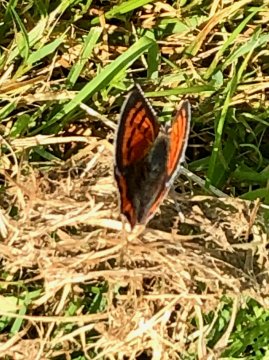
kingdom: Animalia
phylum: Arthropoda
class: Insecta
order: Lepidoptera
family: Lycaenidae
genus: Lycaena
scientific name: Lycaena phlaeas
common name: American Copper
